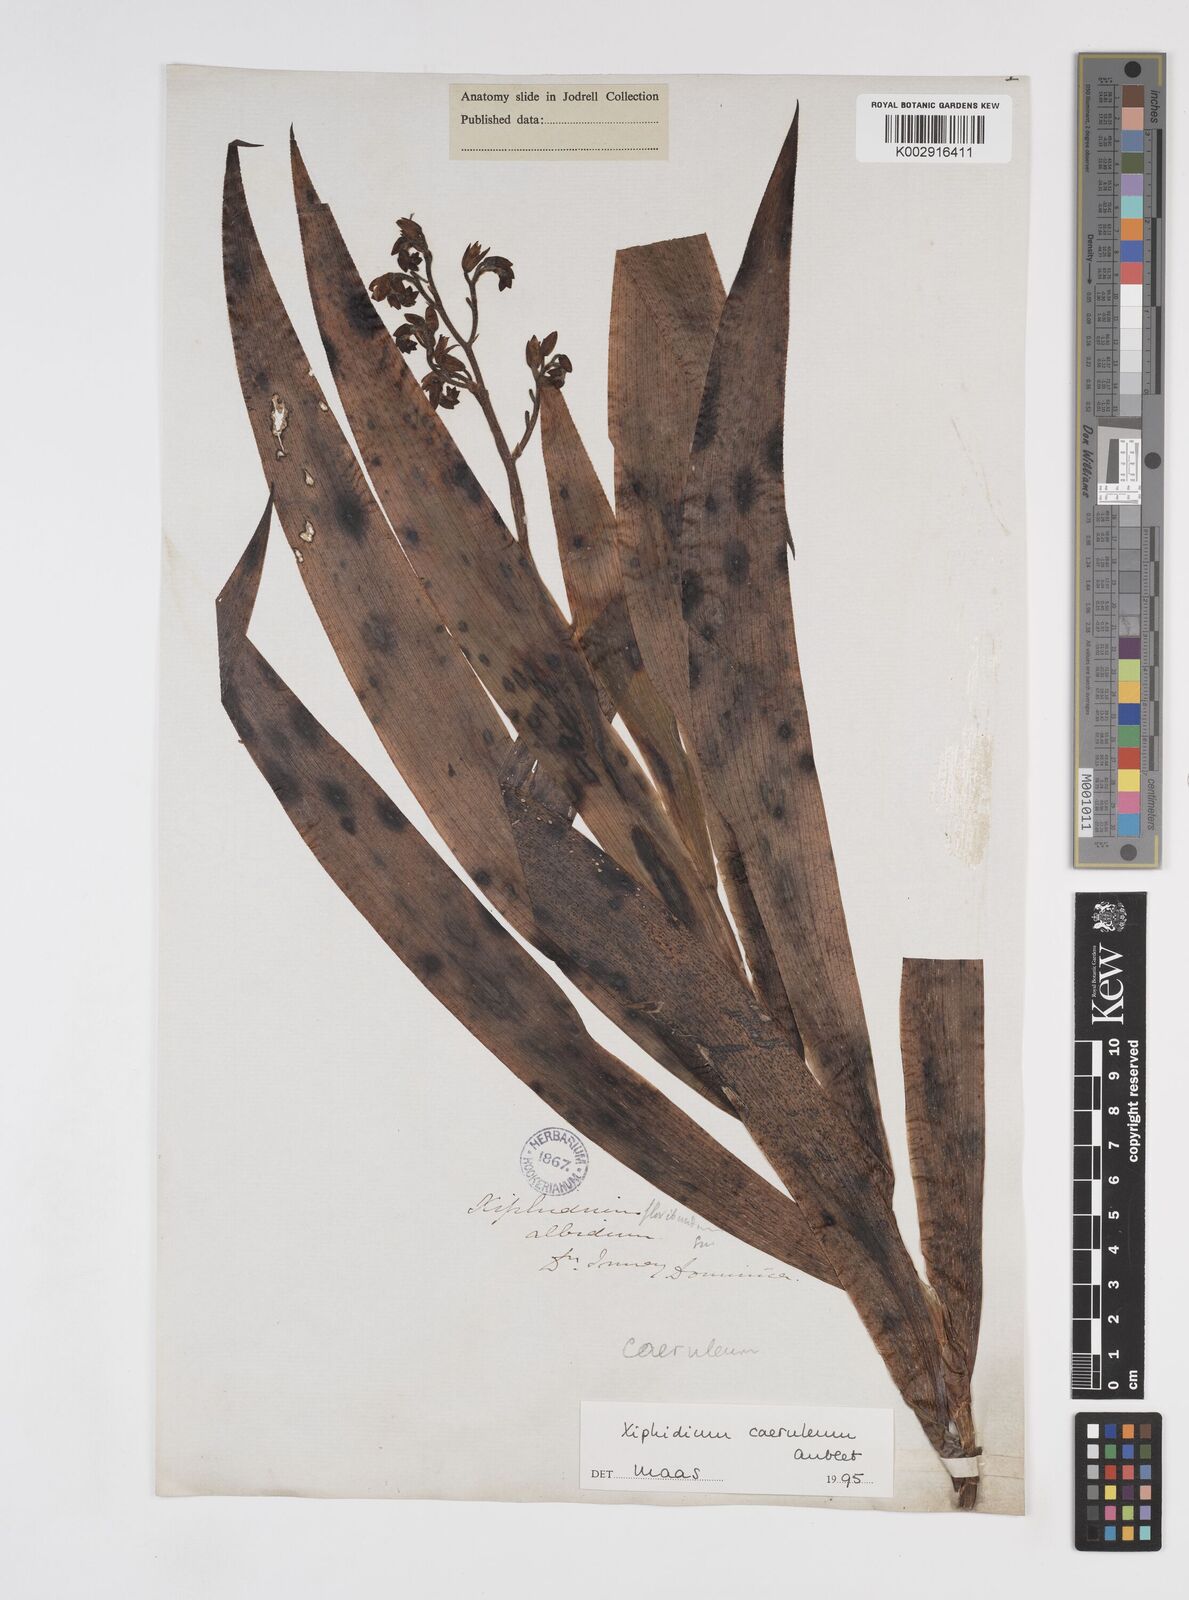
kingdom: Plantae
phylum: Tracheophyta
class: Liliopsida
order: Commelinales
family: Haemodoraceae
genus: Xiphidium
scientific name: Xiphidium caeruleum
